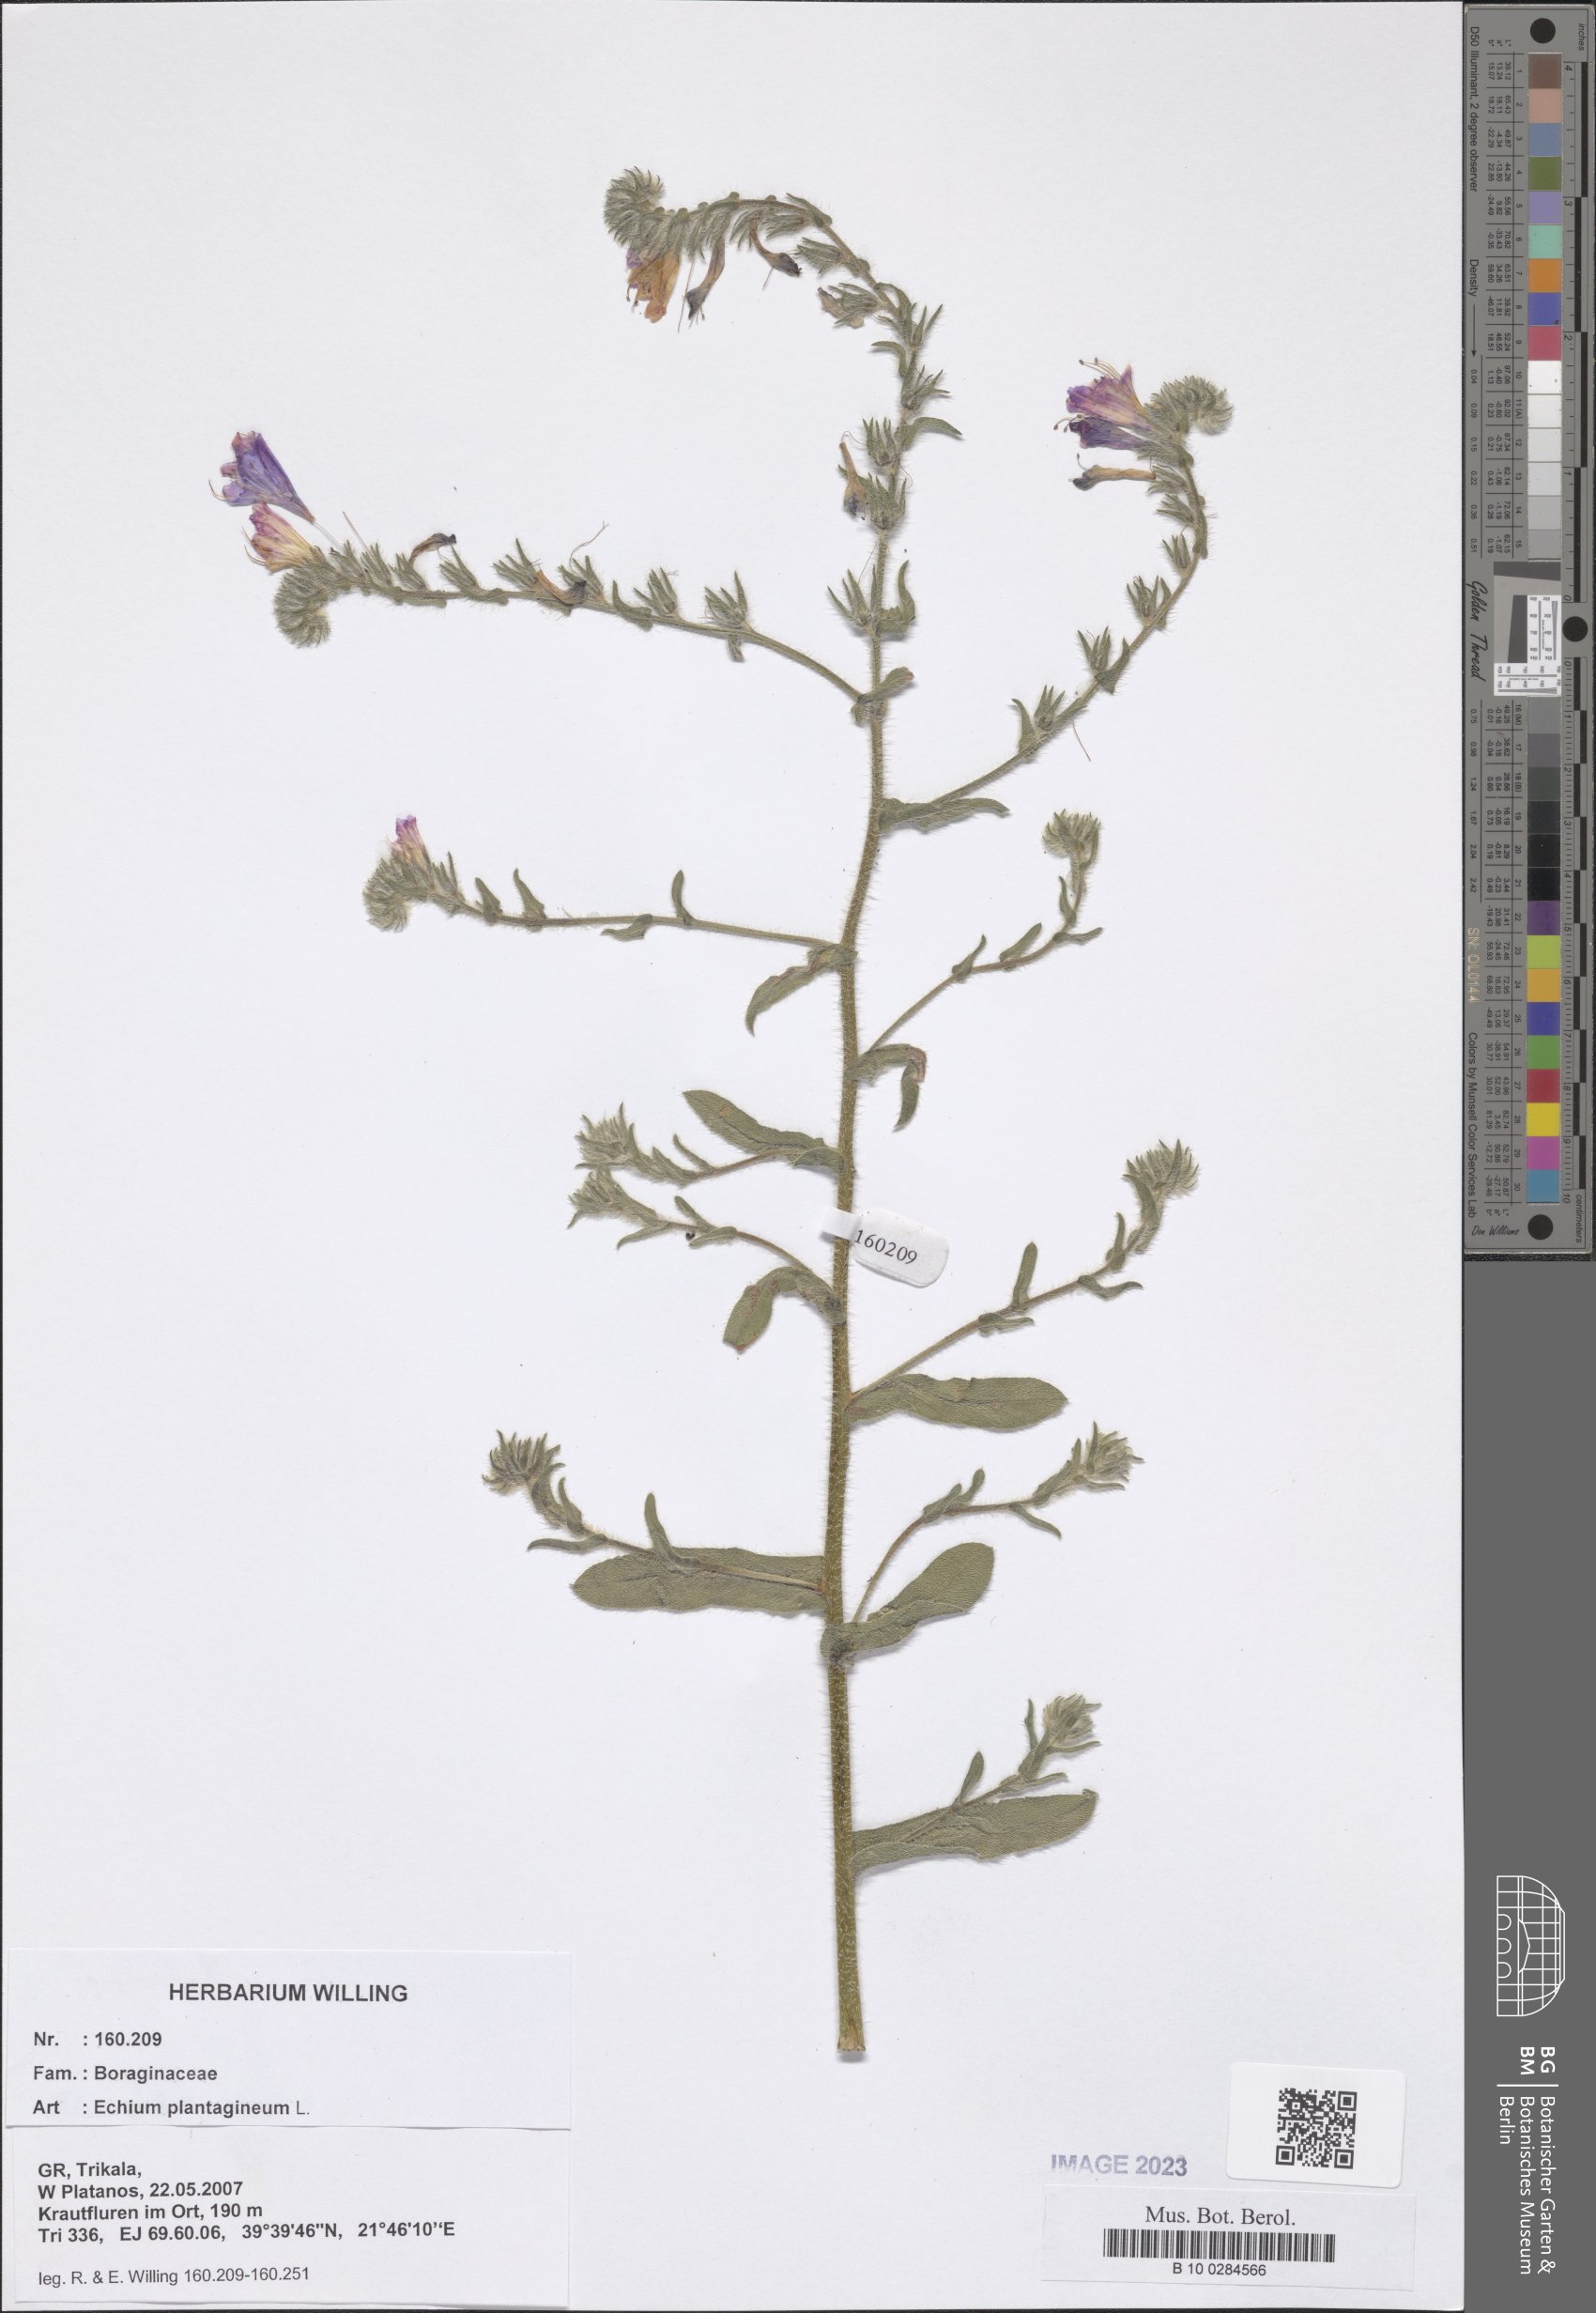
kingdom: Plantae
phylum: Tracheophyta
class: Magnoliopsida
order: Boraginales
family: Boraginaceae
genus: Echium
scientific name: Echium plantagineum
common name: Purple viper's-bugloss
